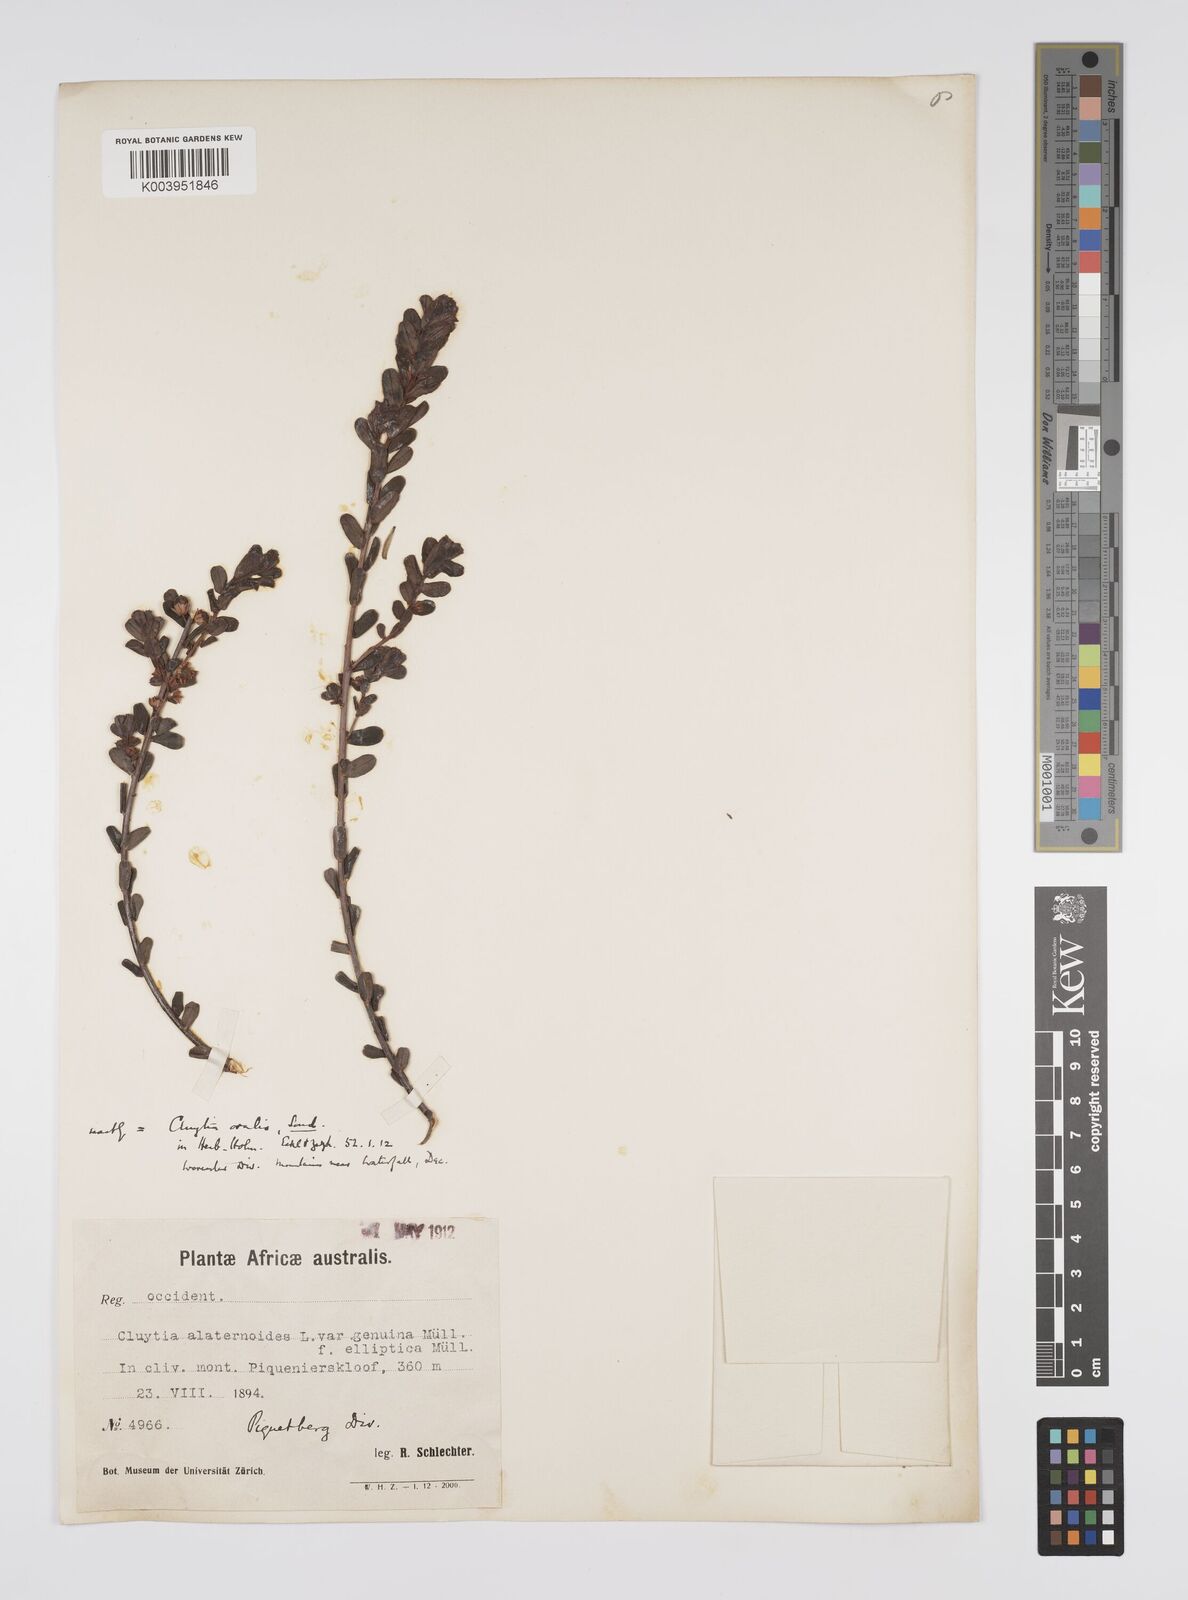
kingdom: Plantae
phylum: Tracheophyta
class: Magnoliopsida
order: Malpighiales
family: Peraceae
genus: Clutia
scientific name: Clutia
